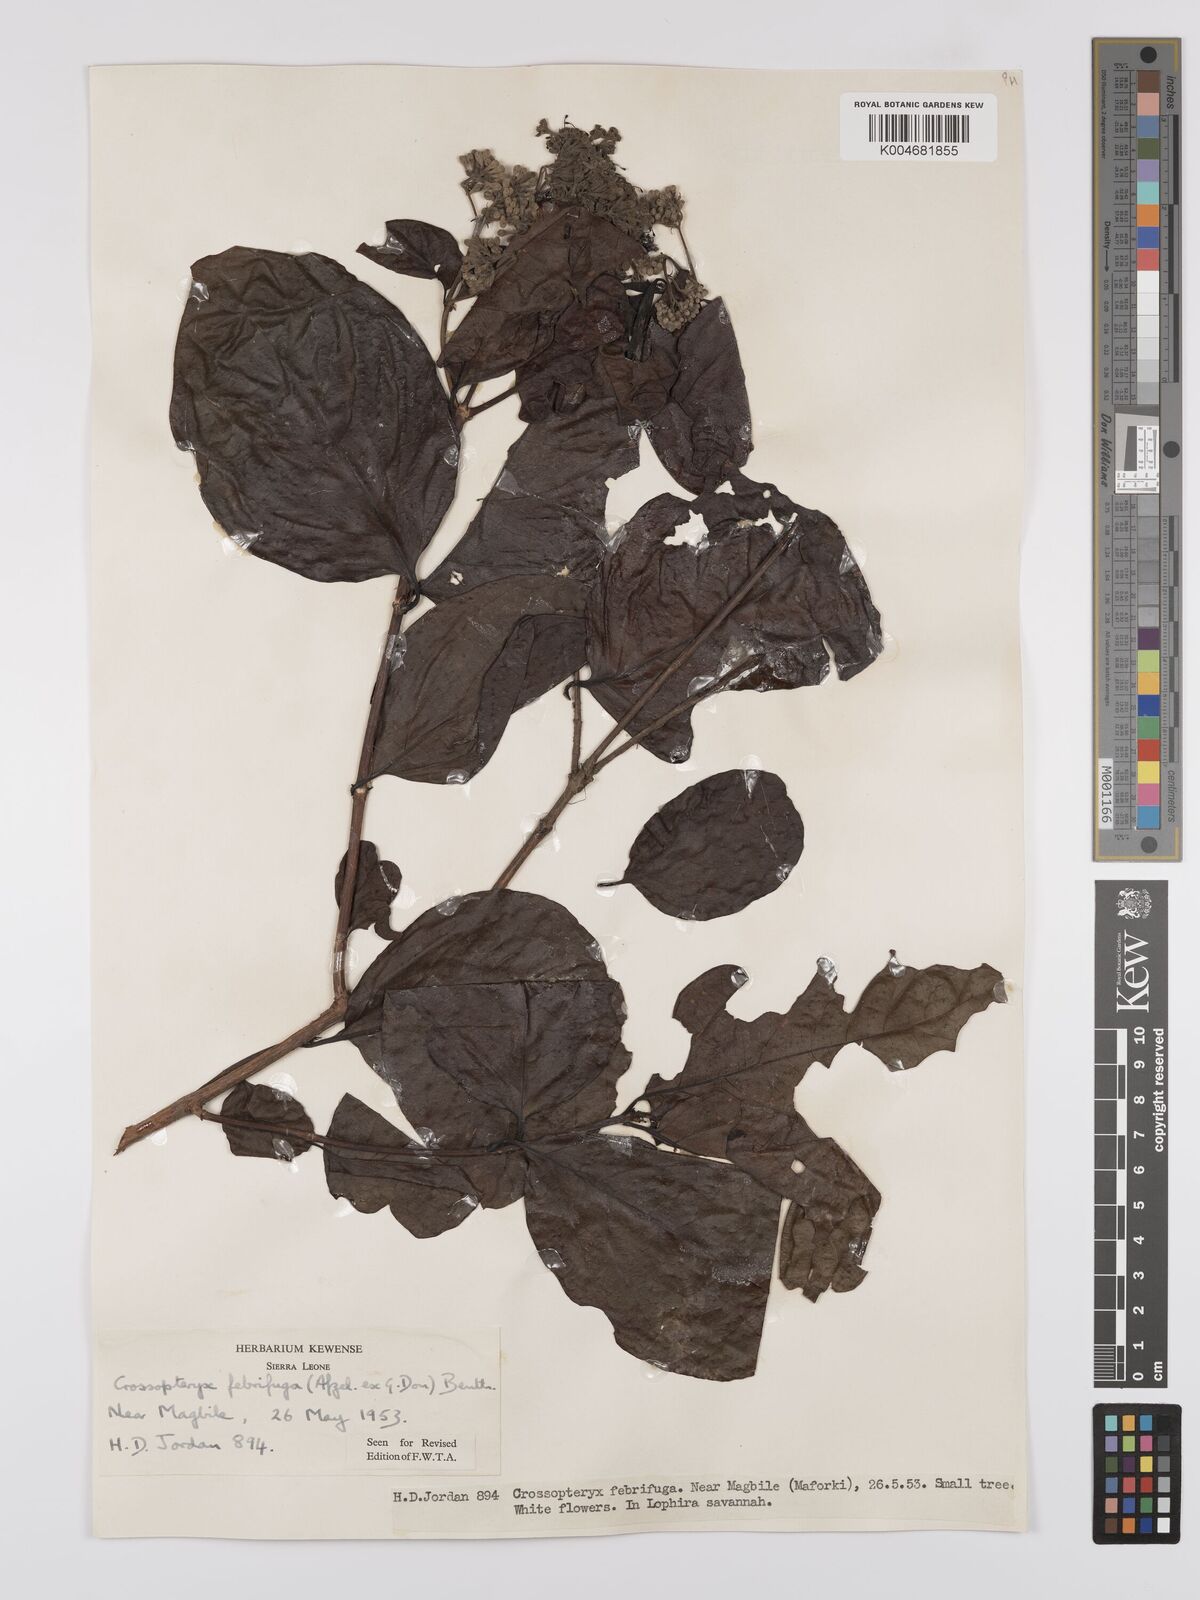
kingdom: Plantae
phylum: Tracheophyta
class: Magnoliopsida
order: Gentianales
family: Rubiaceae
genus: Crossopteryx
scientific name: Crossopteryx febrifuga
